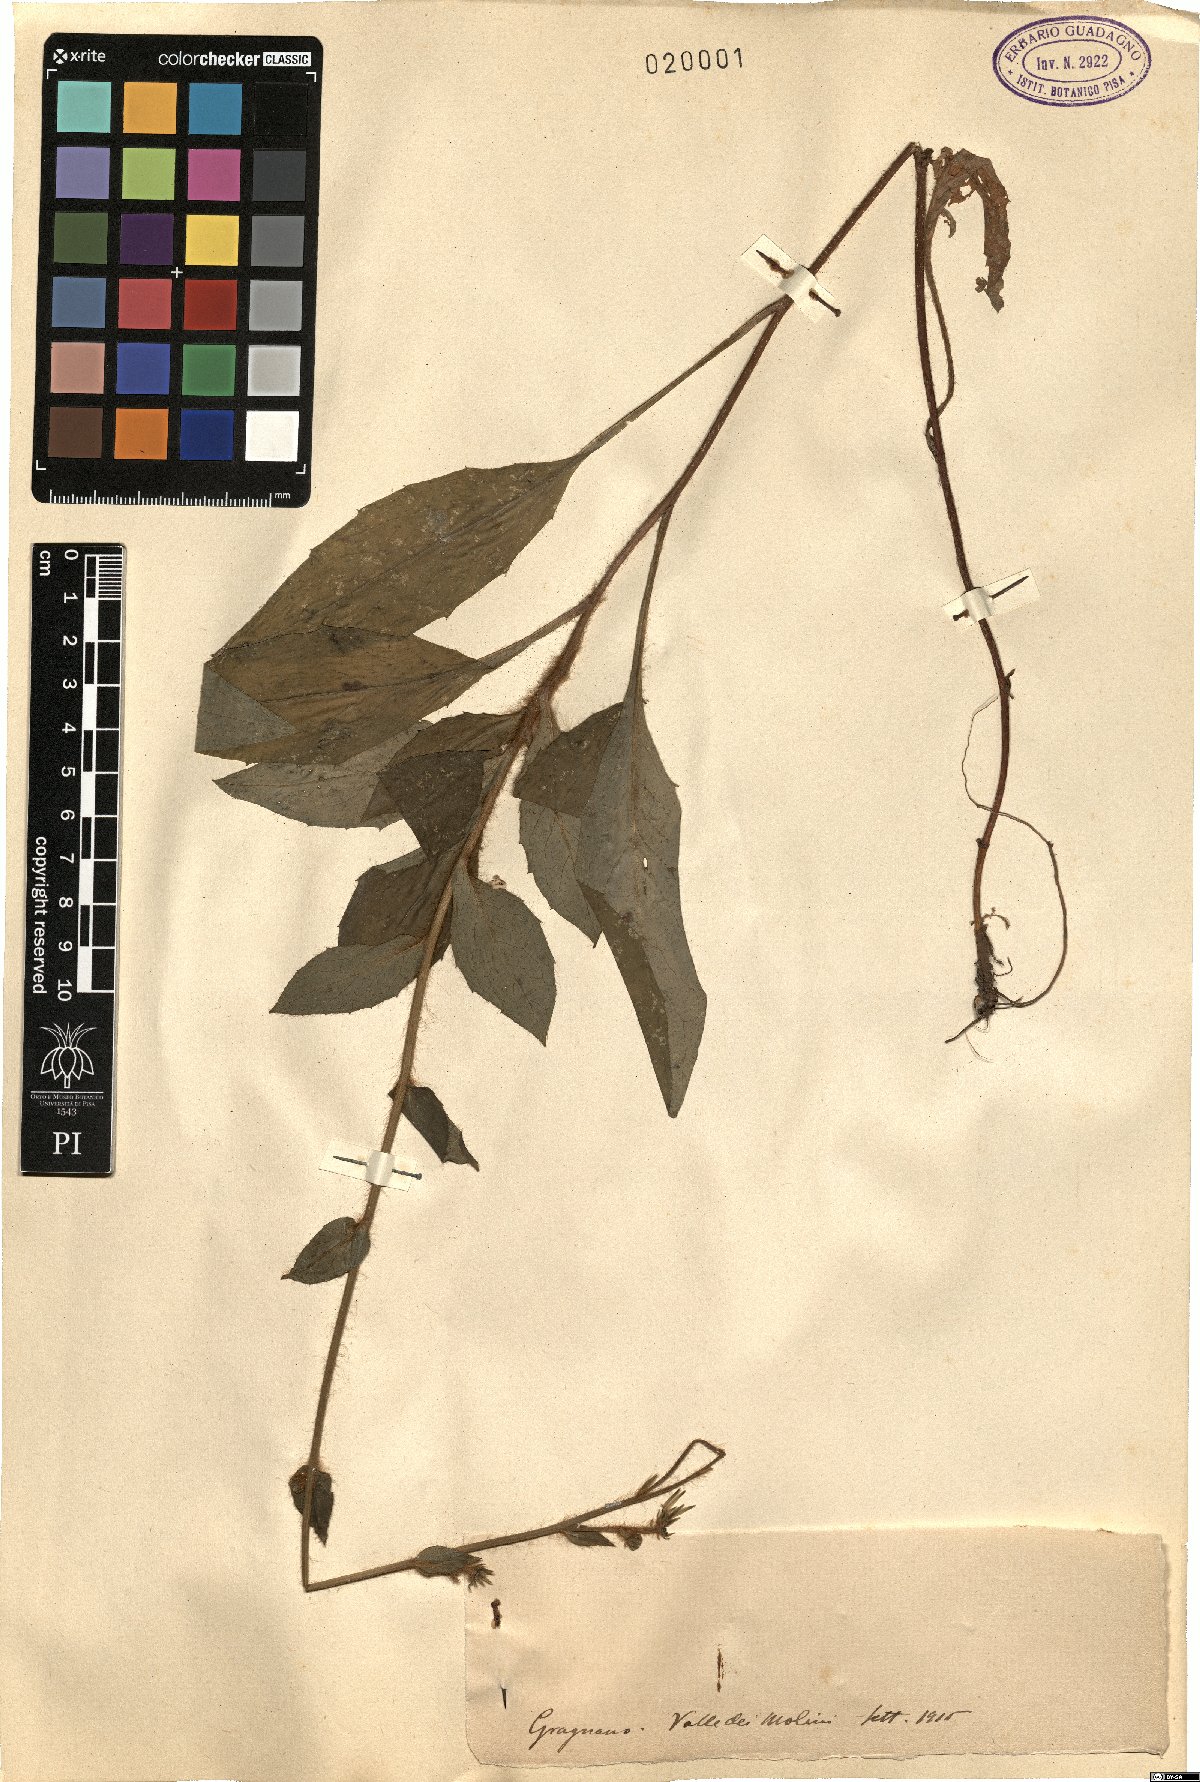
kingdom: Plantae
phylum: Tracheophyta
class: Magnoliopsida
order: Asterales
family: Asteraceae
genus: Hieracium
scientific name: Hieracium
